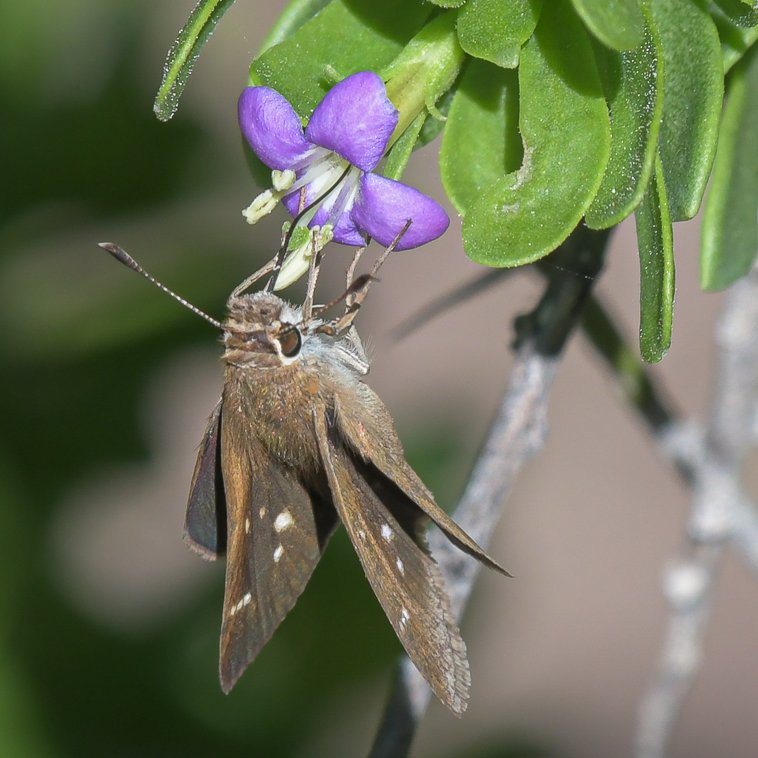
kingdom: Animalia
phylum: Arthropoda
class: Insecta
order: Lepidoptera
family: Hesperiidae
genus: Lerodea
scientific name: Lerodea eufala
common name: Eufala Skipper
